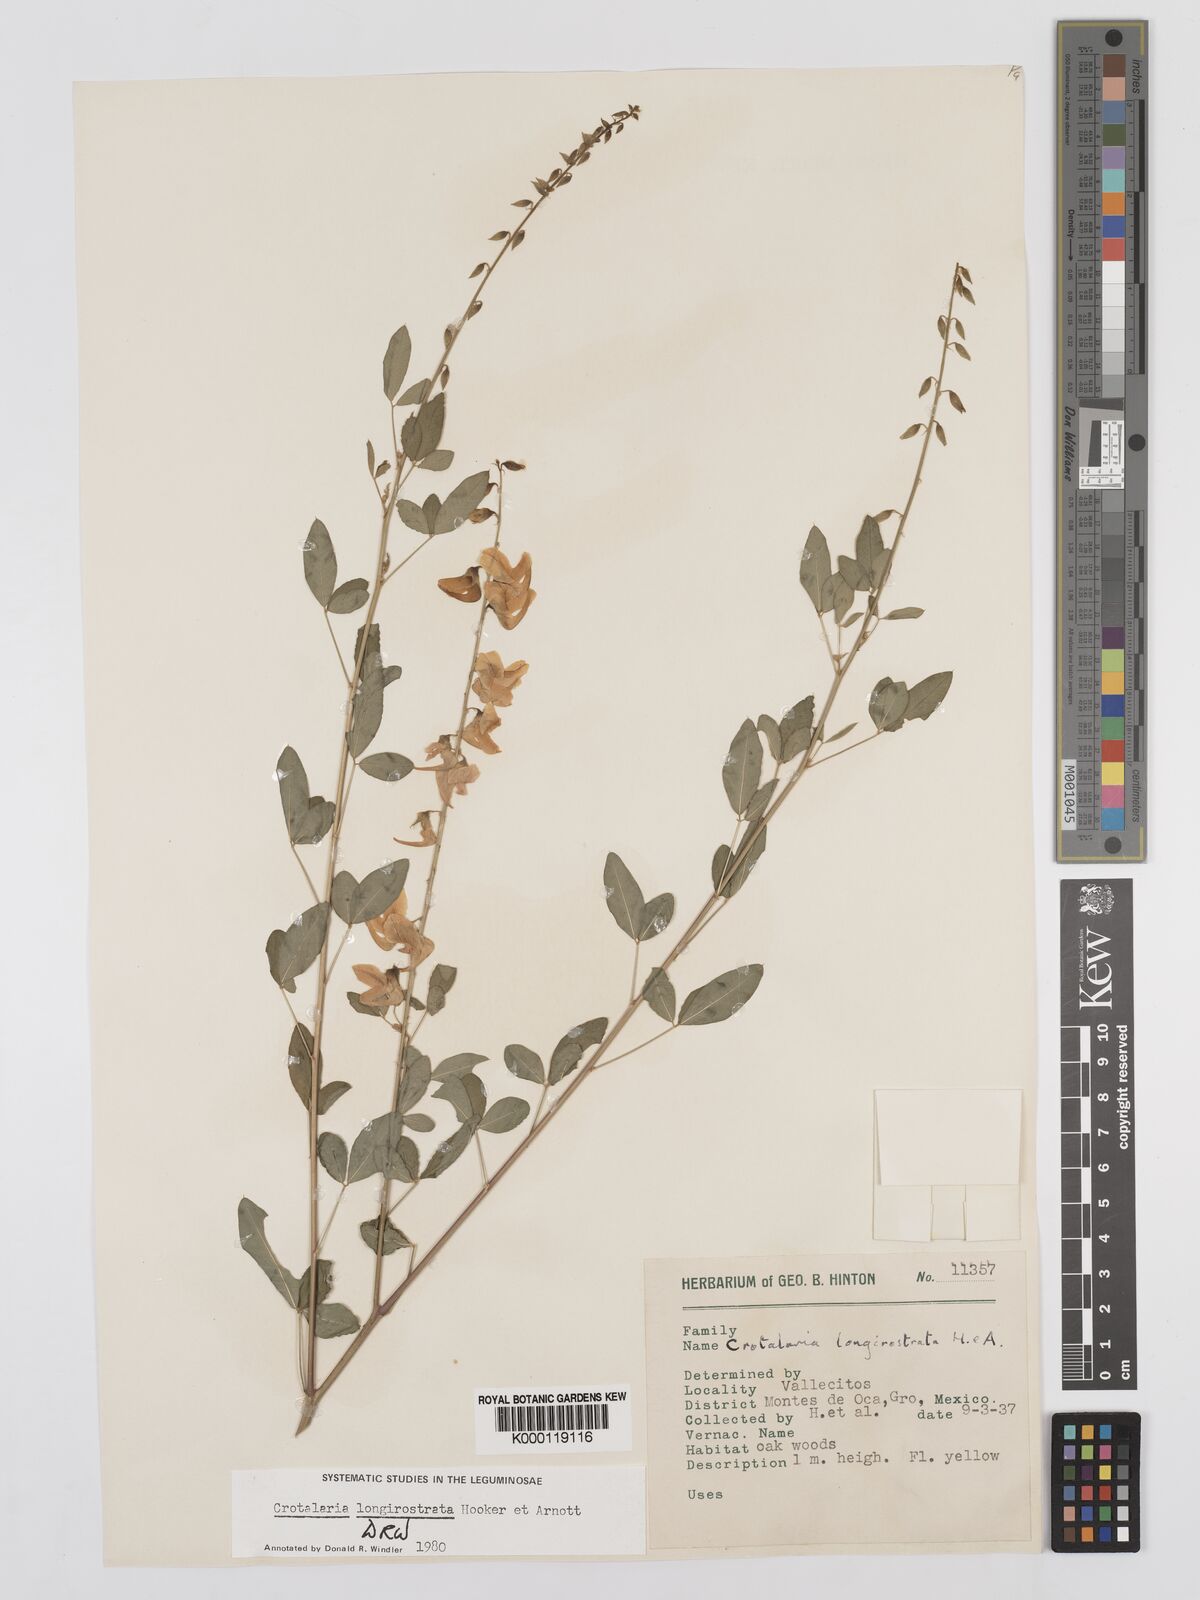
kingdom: Plantae
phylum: Tracheophyta
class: Magnoliopsida
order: Fabales
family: Fabaceae
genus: Crotalaria
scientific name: Crotalaria longirostrata
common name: Longbeak rattlebox
